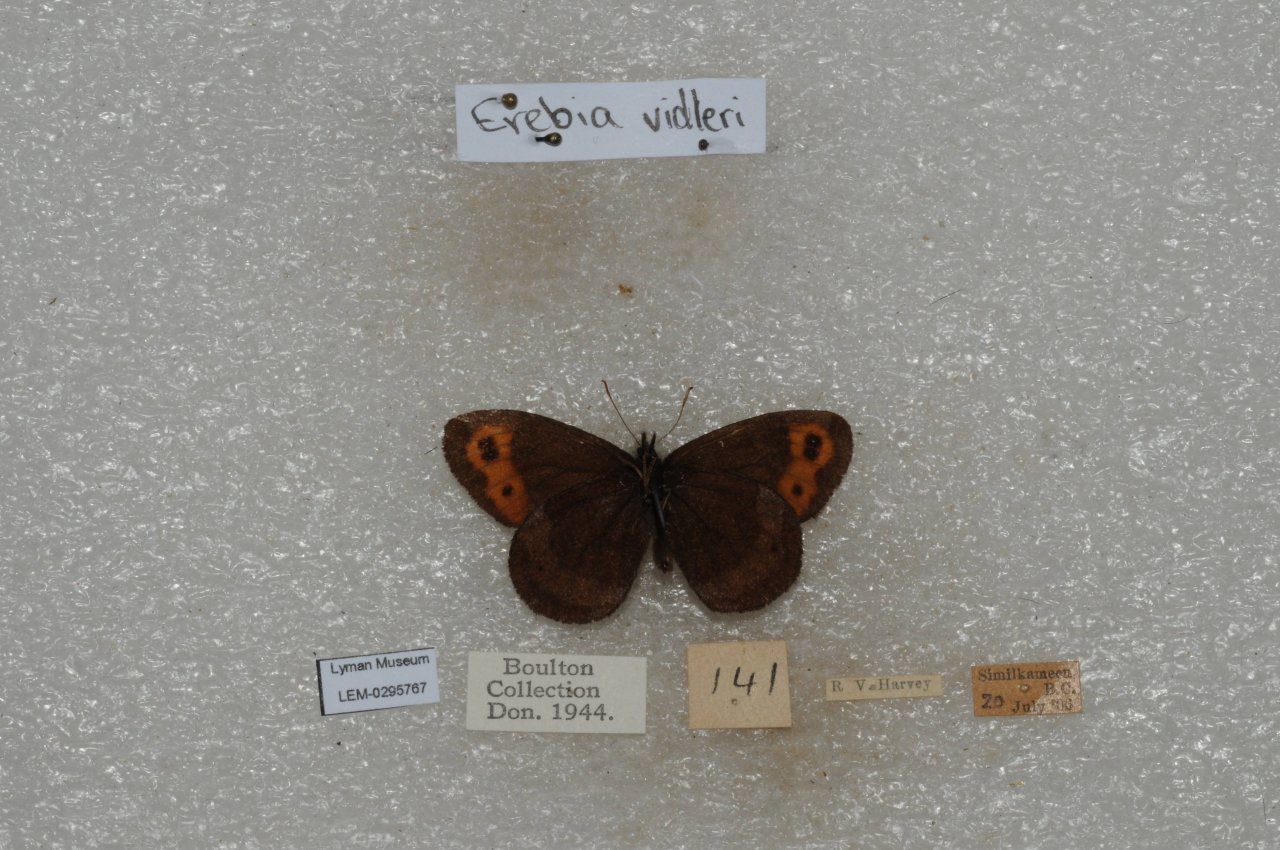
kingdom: Animalia
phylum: Arthropoda
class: Insecta
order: Lepidoptera
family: Nymphalidae
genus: Erebia
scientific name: Erebia vidleri
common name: Vidler's Alpine
